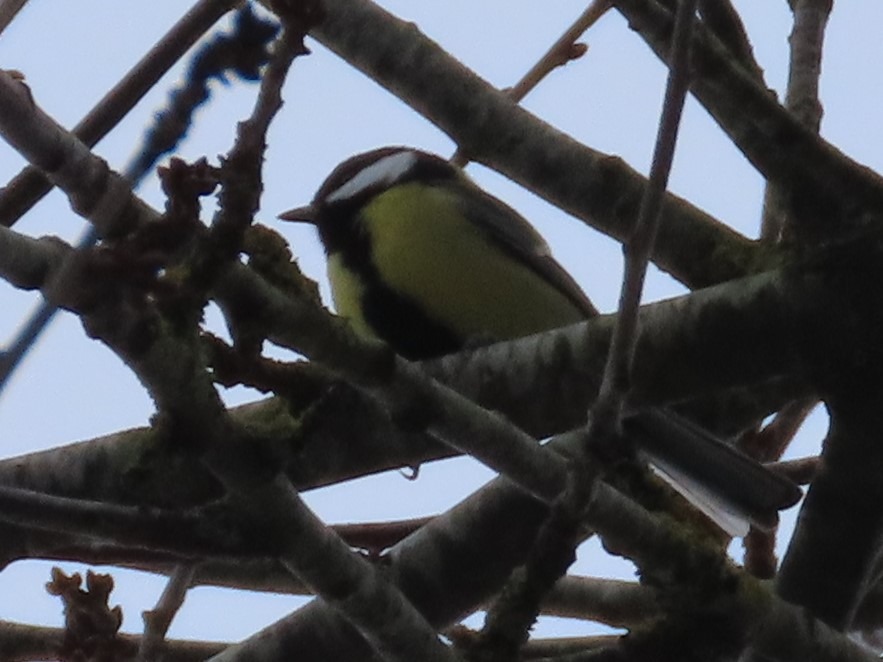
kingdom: Animalia
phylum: Chordata
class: Aves
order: Passeriformes
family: Paridae
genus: Parus
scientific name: Parus major
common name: Musvit
